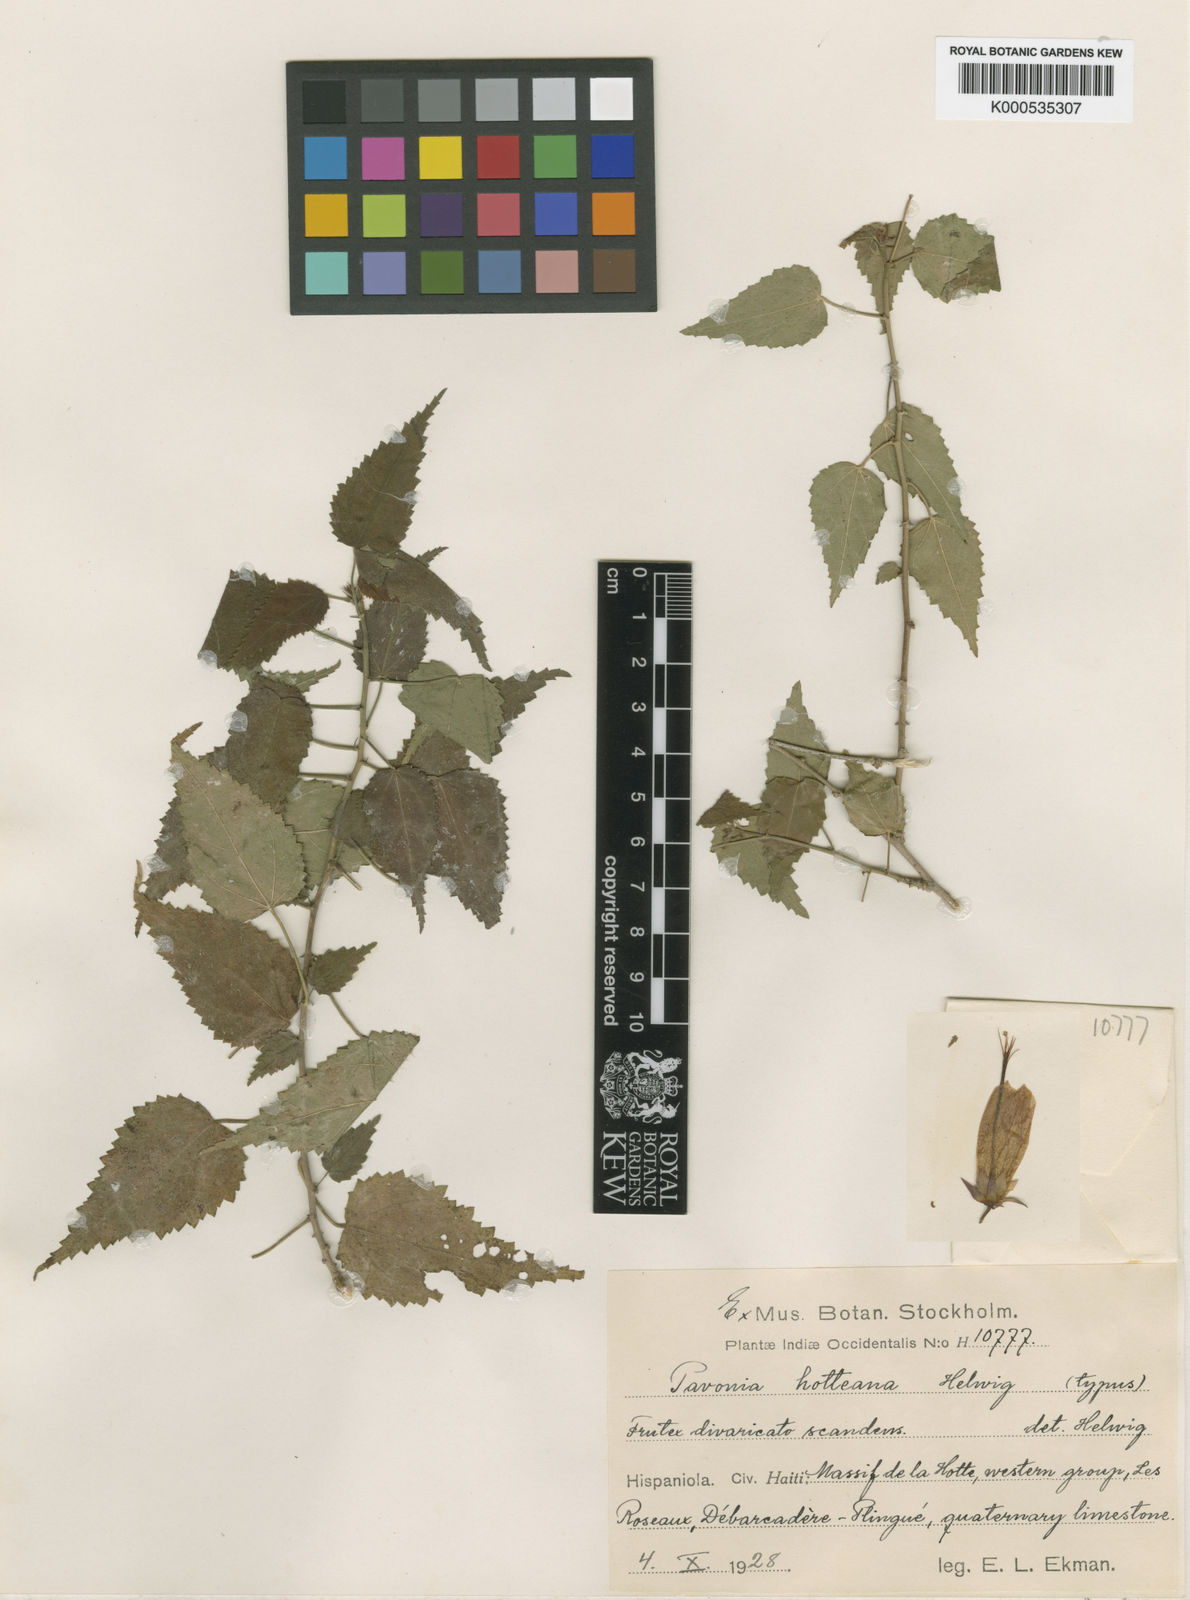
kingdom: Plantae
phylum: Tracheophyta
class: Magnoliopsida
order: Malvales
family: Malvaceae
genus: Pavonia
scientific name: Pavonia hotteana
